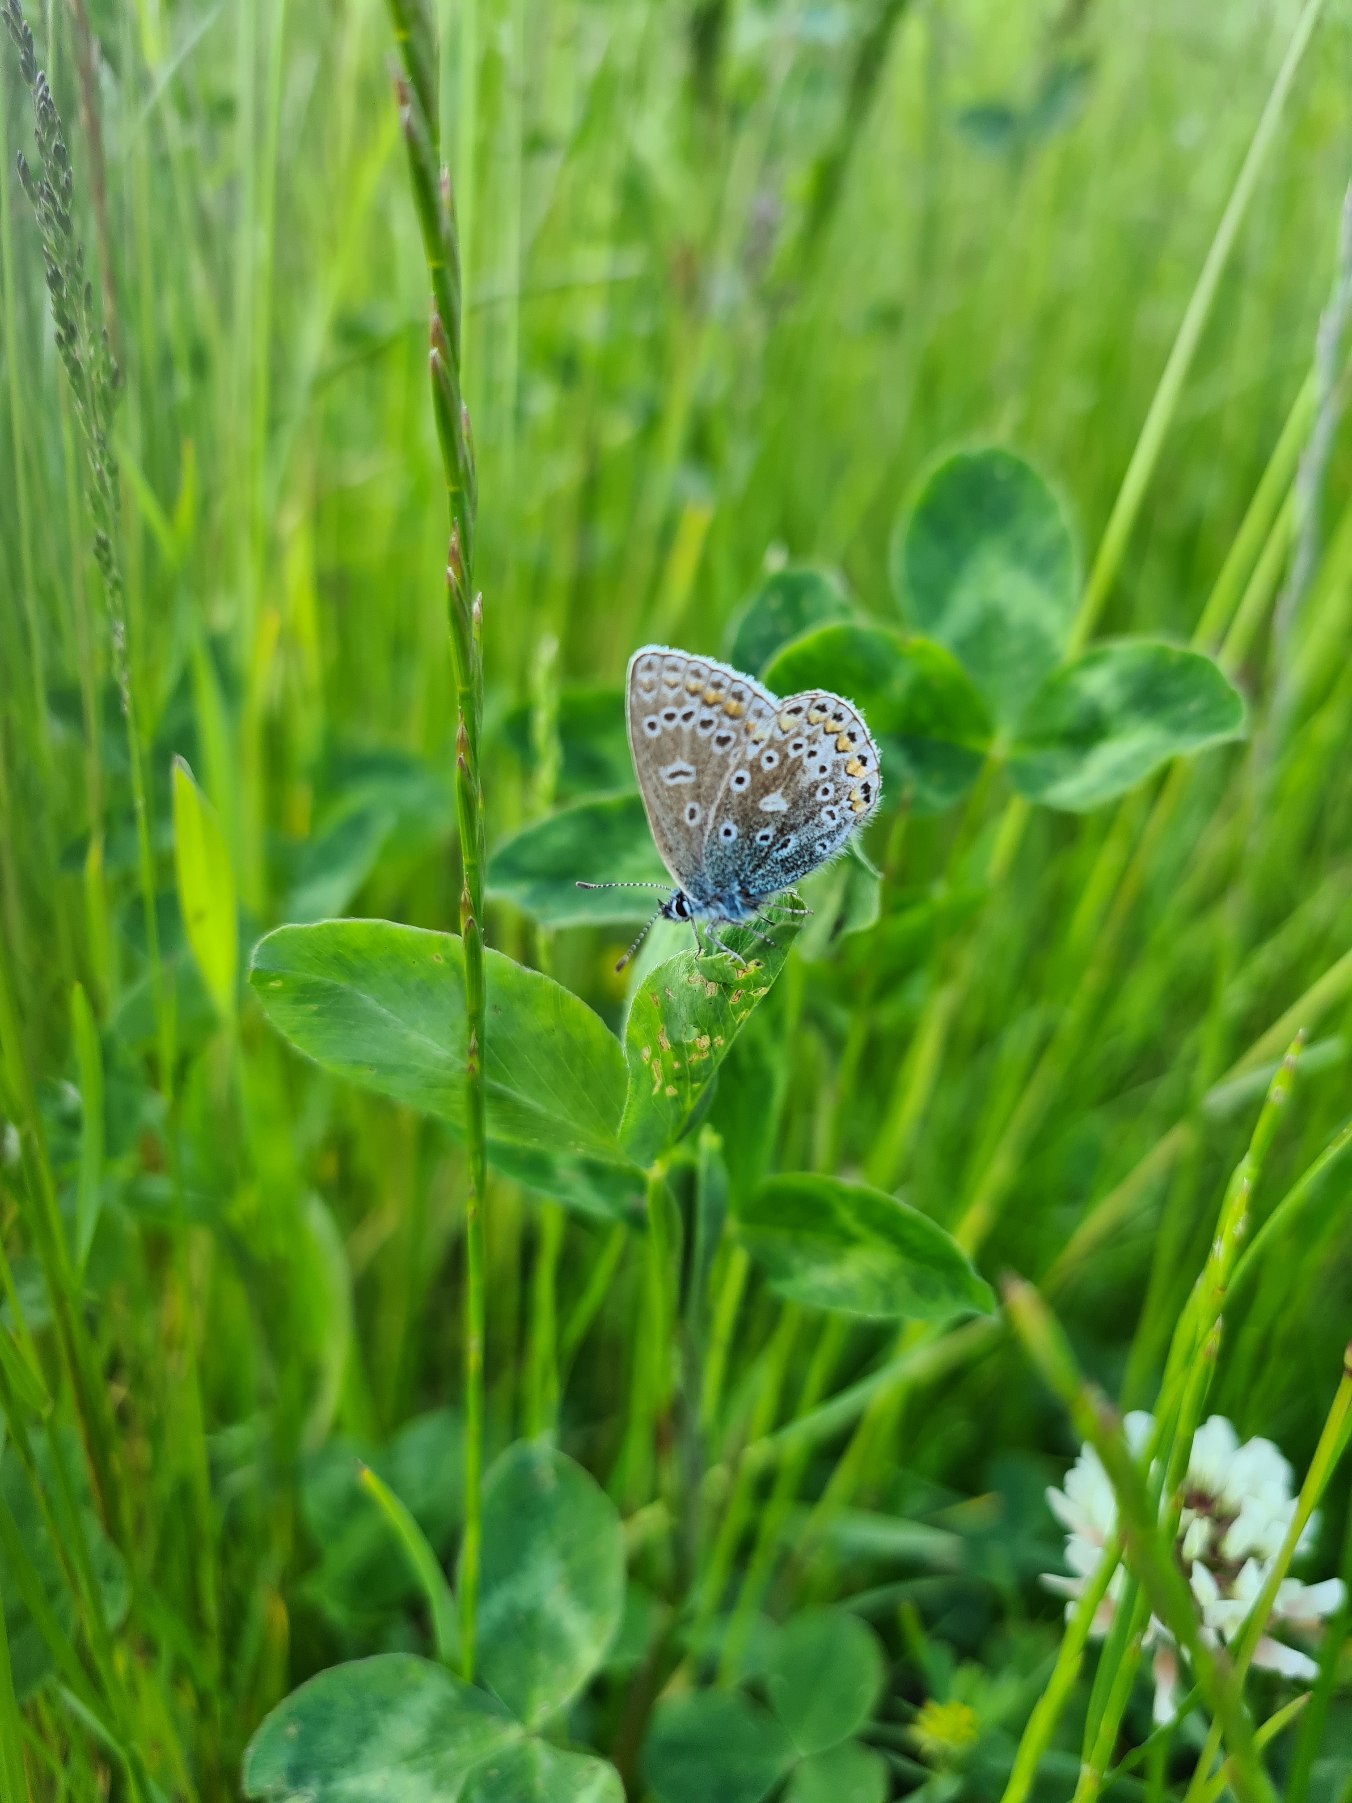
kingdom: Animalia
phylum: Arthropoda
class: Insecta
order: Lepidoptera
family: Lycaenidae
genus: Polyommatus
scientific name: Polyommatus icarus
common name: Almindelig blåfugl
